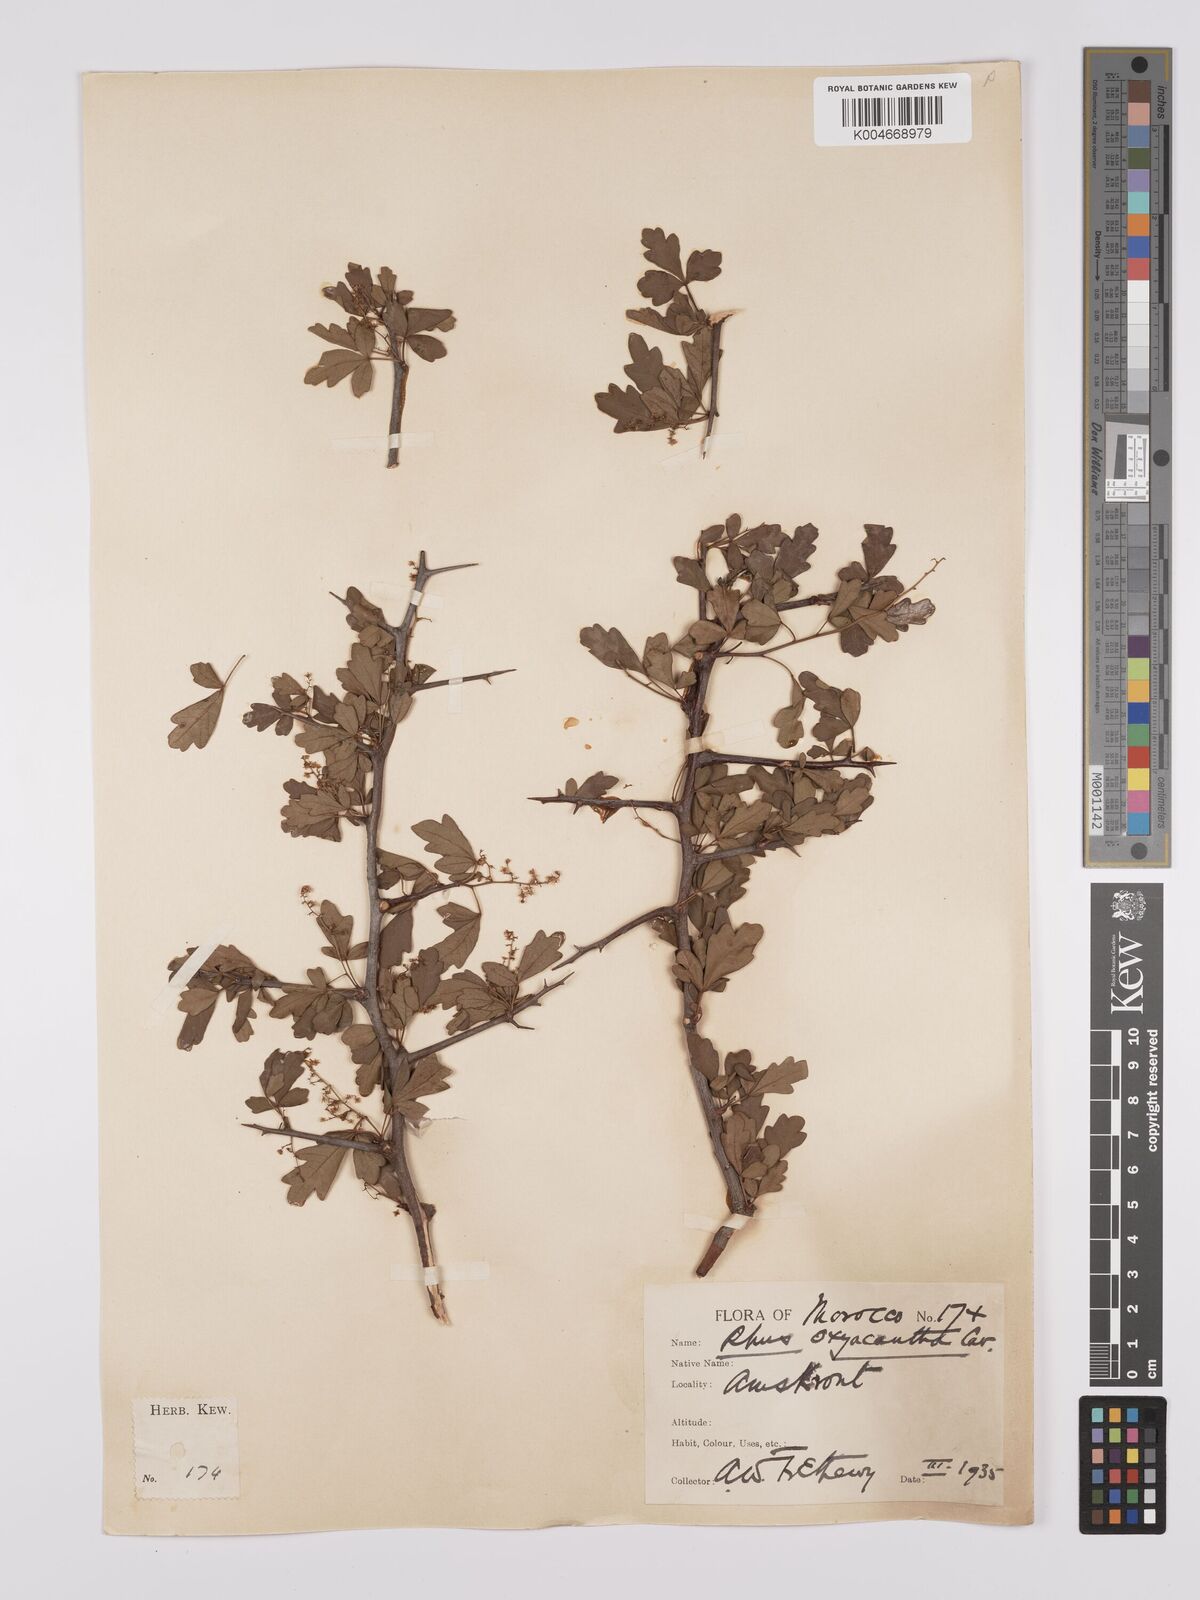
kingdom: Plantae
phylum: Tracheophyta
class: Magnoliopsida
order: Sapindales
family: Anacardiaceae
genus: Rhus
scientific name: Rhus
